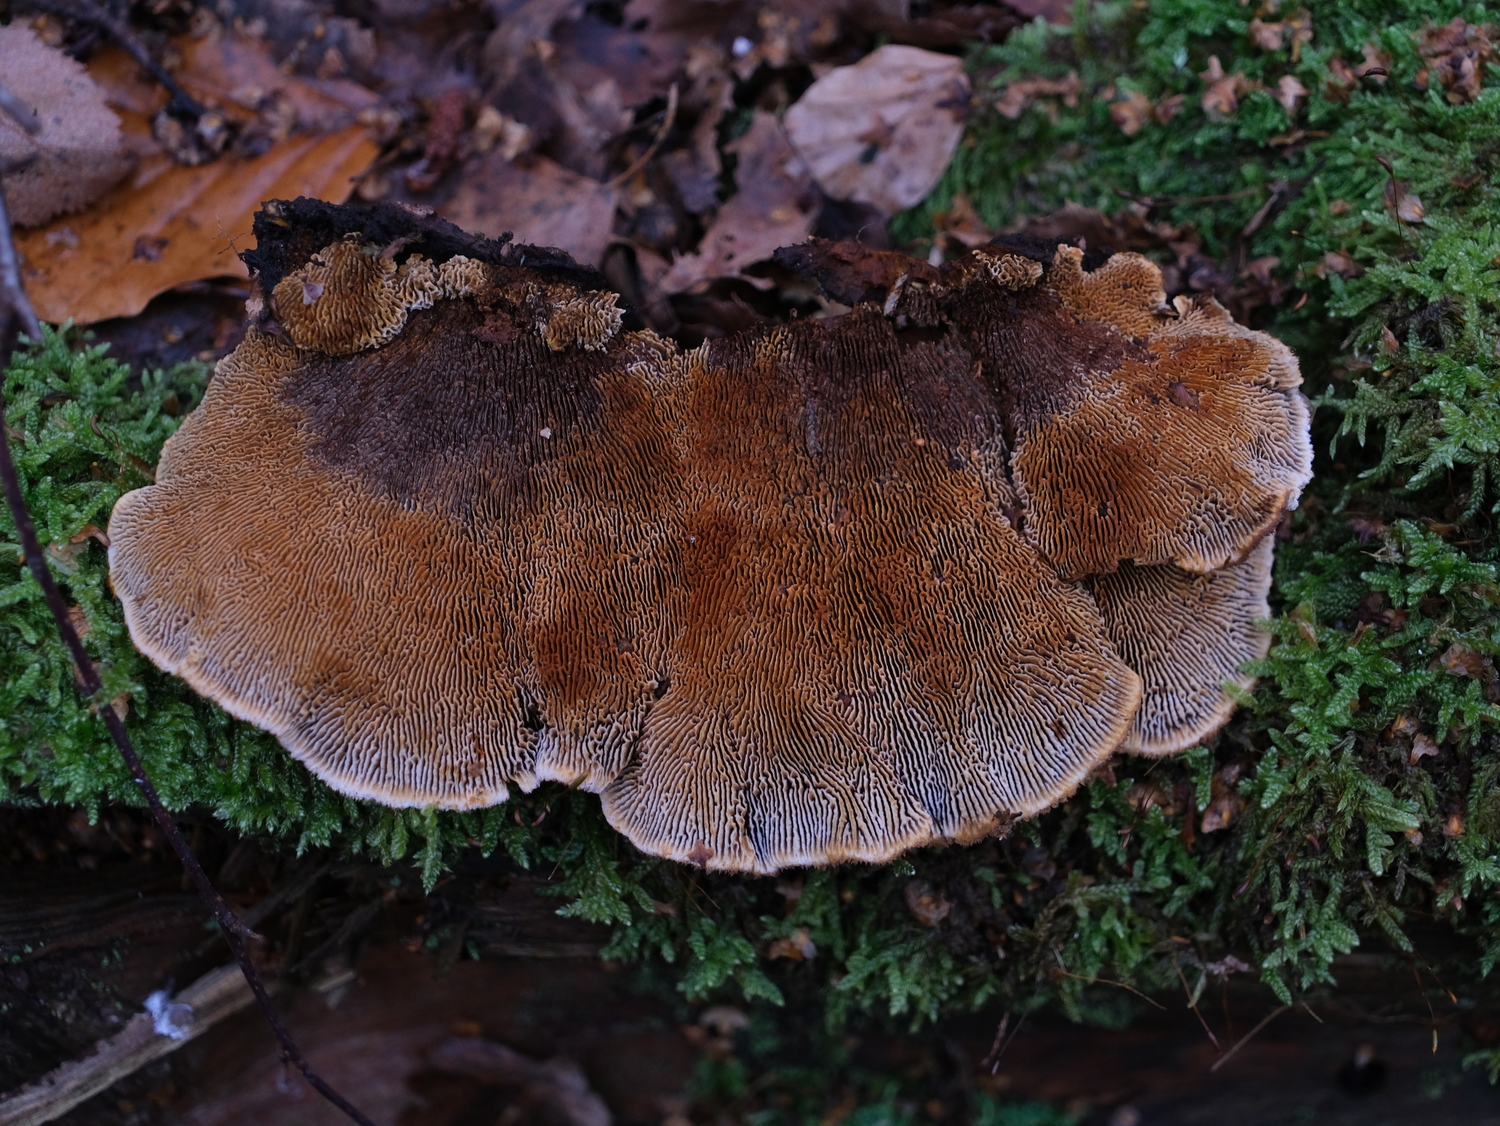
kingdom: Fungi
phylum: Basidiomycota
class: Agaricomycetes
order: Gloeophyllales
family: Gloeophyllaceae
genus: Gloeophyllum
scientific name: Gloeophyllum sepiarium
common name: fyrre-korkhat
